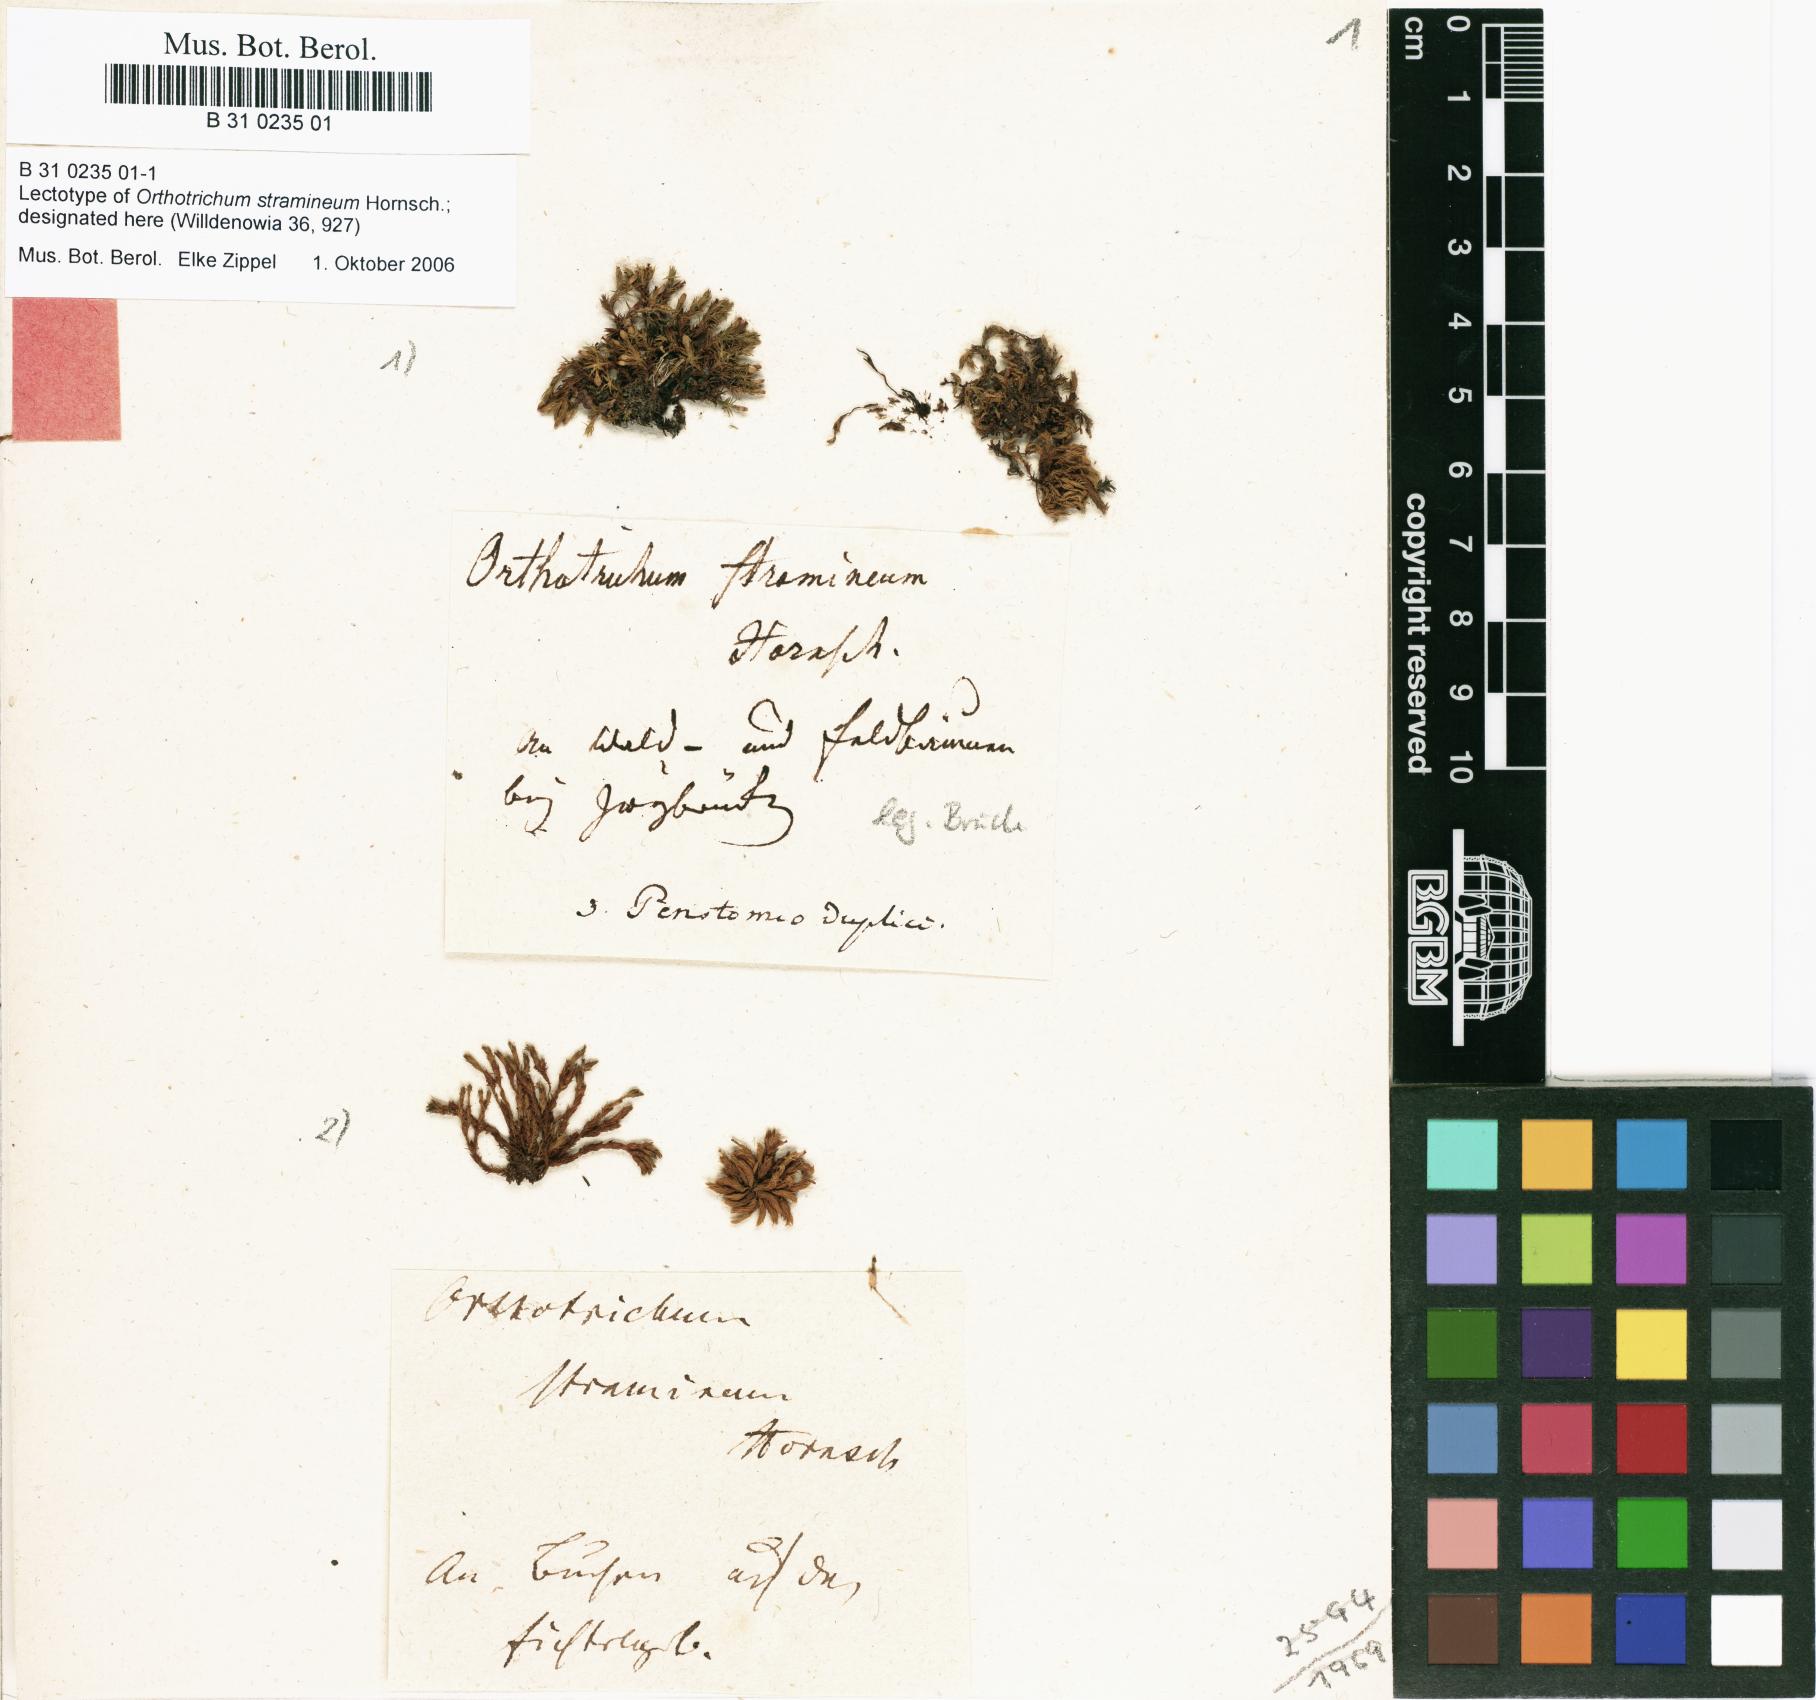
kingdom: Plantae
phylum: Bryophyta
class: Bryopsida
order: Orthotrichales
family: Orthotrichaceae
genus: Orthotrichum
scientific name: Orthotrichum stramineum
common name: Straw bristle-moss
